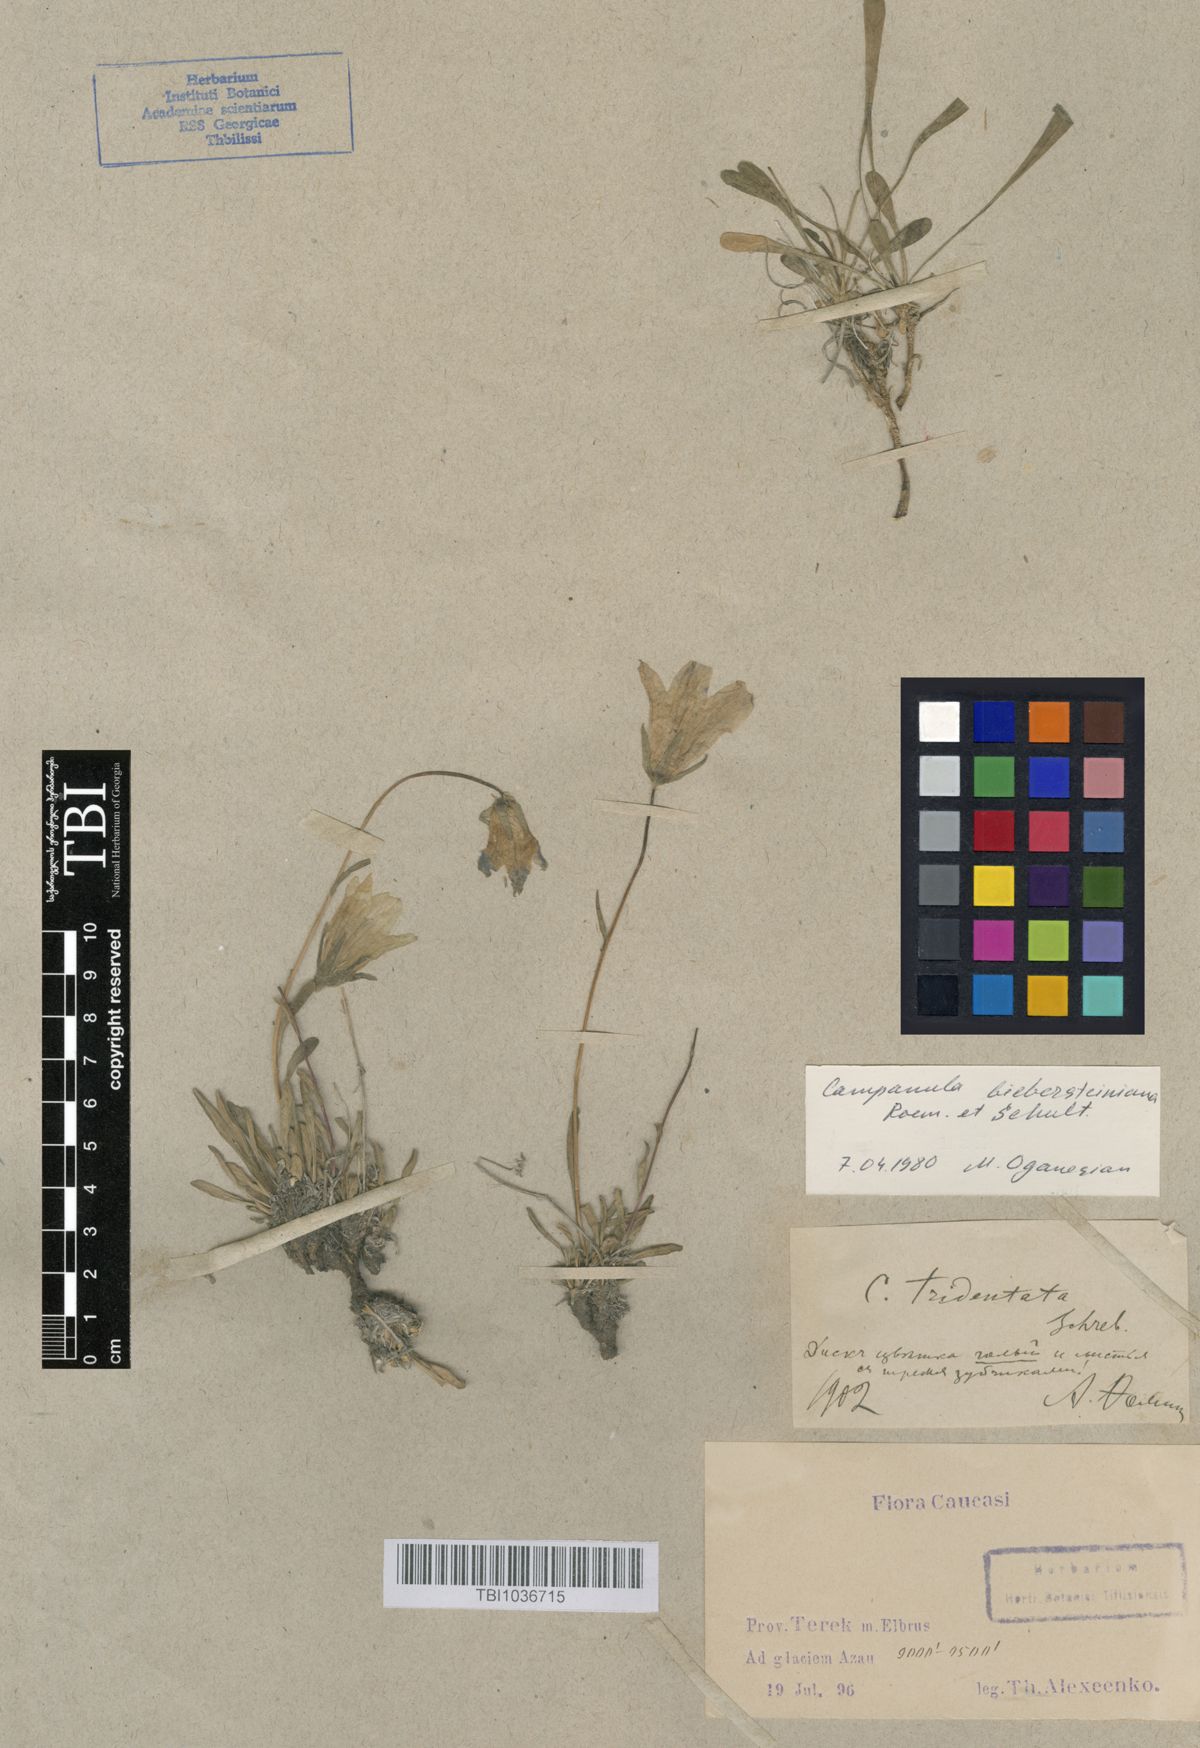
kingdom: Plantae
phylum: Tracheophyta
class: Magnoliopsida
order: Asterales
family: Campanulaceae
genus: Campanula
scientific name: Campanula tridentata
